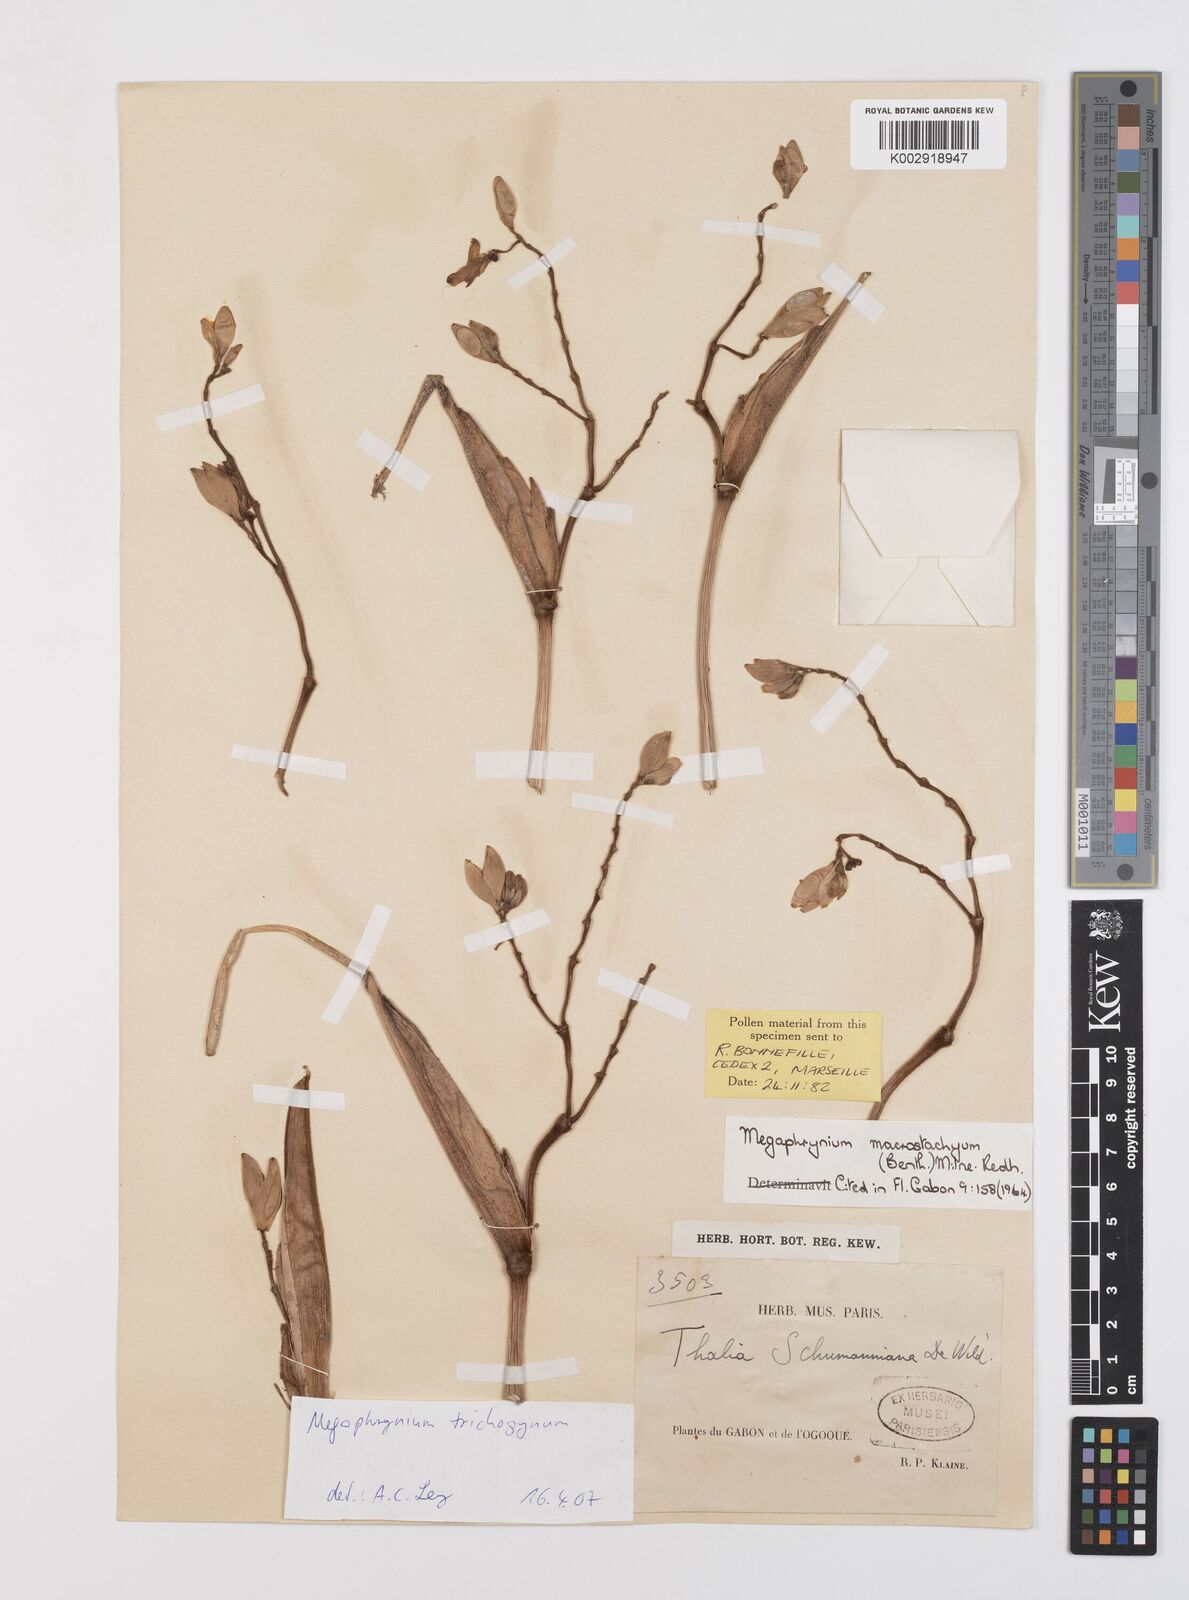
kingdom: Plantae
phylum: Tracheophyta
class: Liliopsida
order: Zingiberales
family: Marantaceae
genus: Megaphrynium
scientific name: Megaphrynium trichogynum
